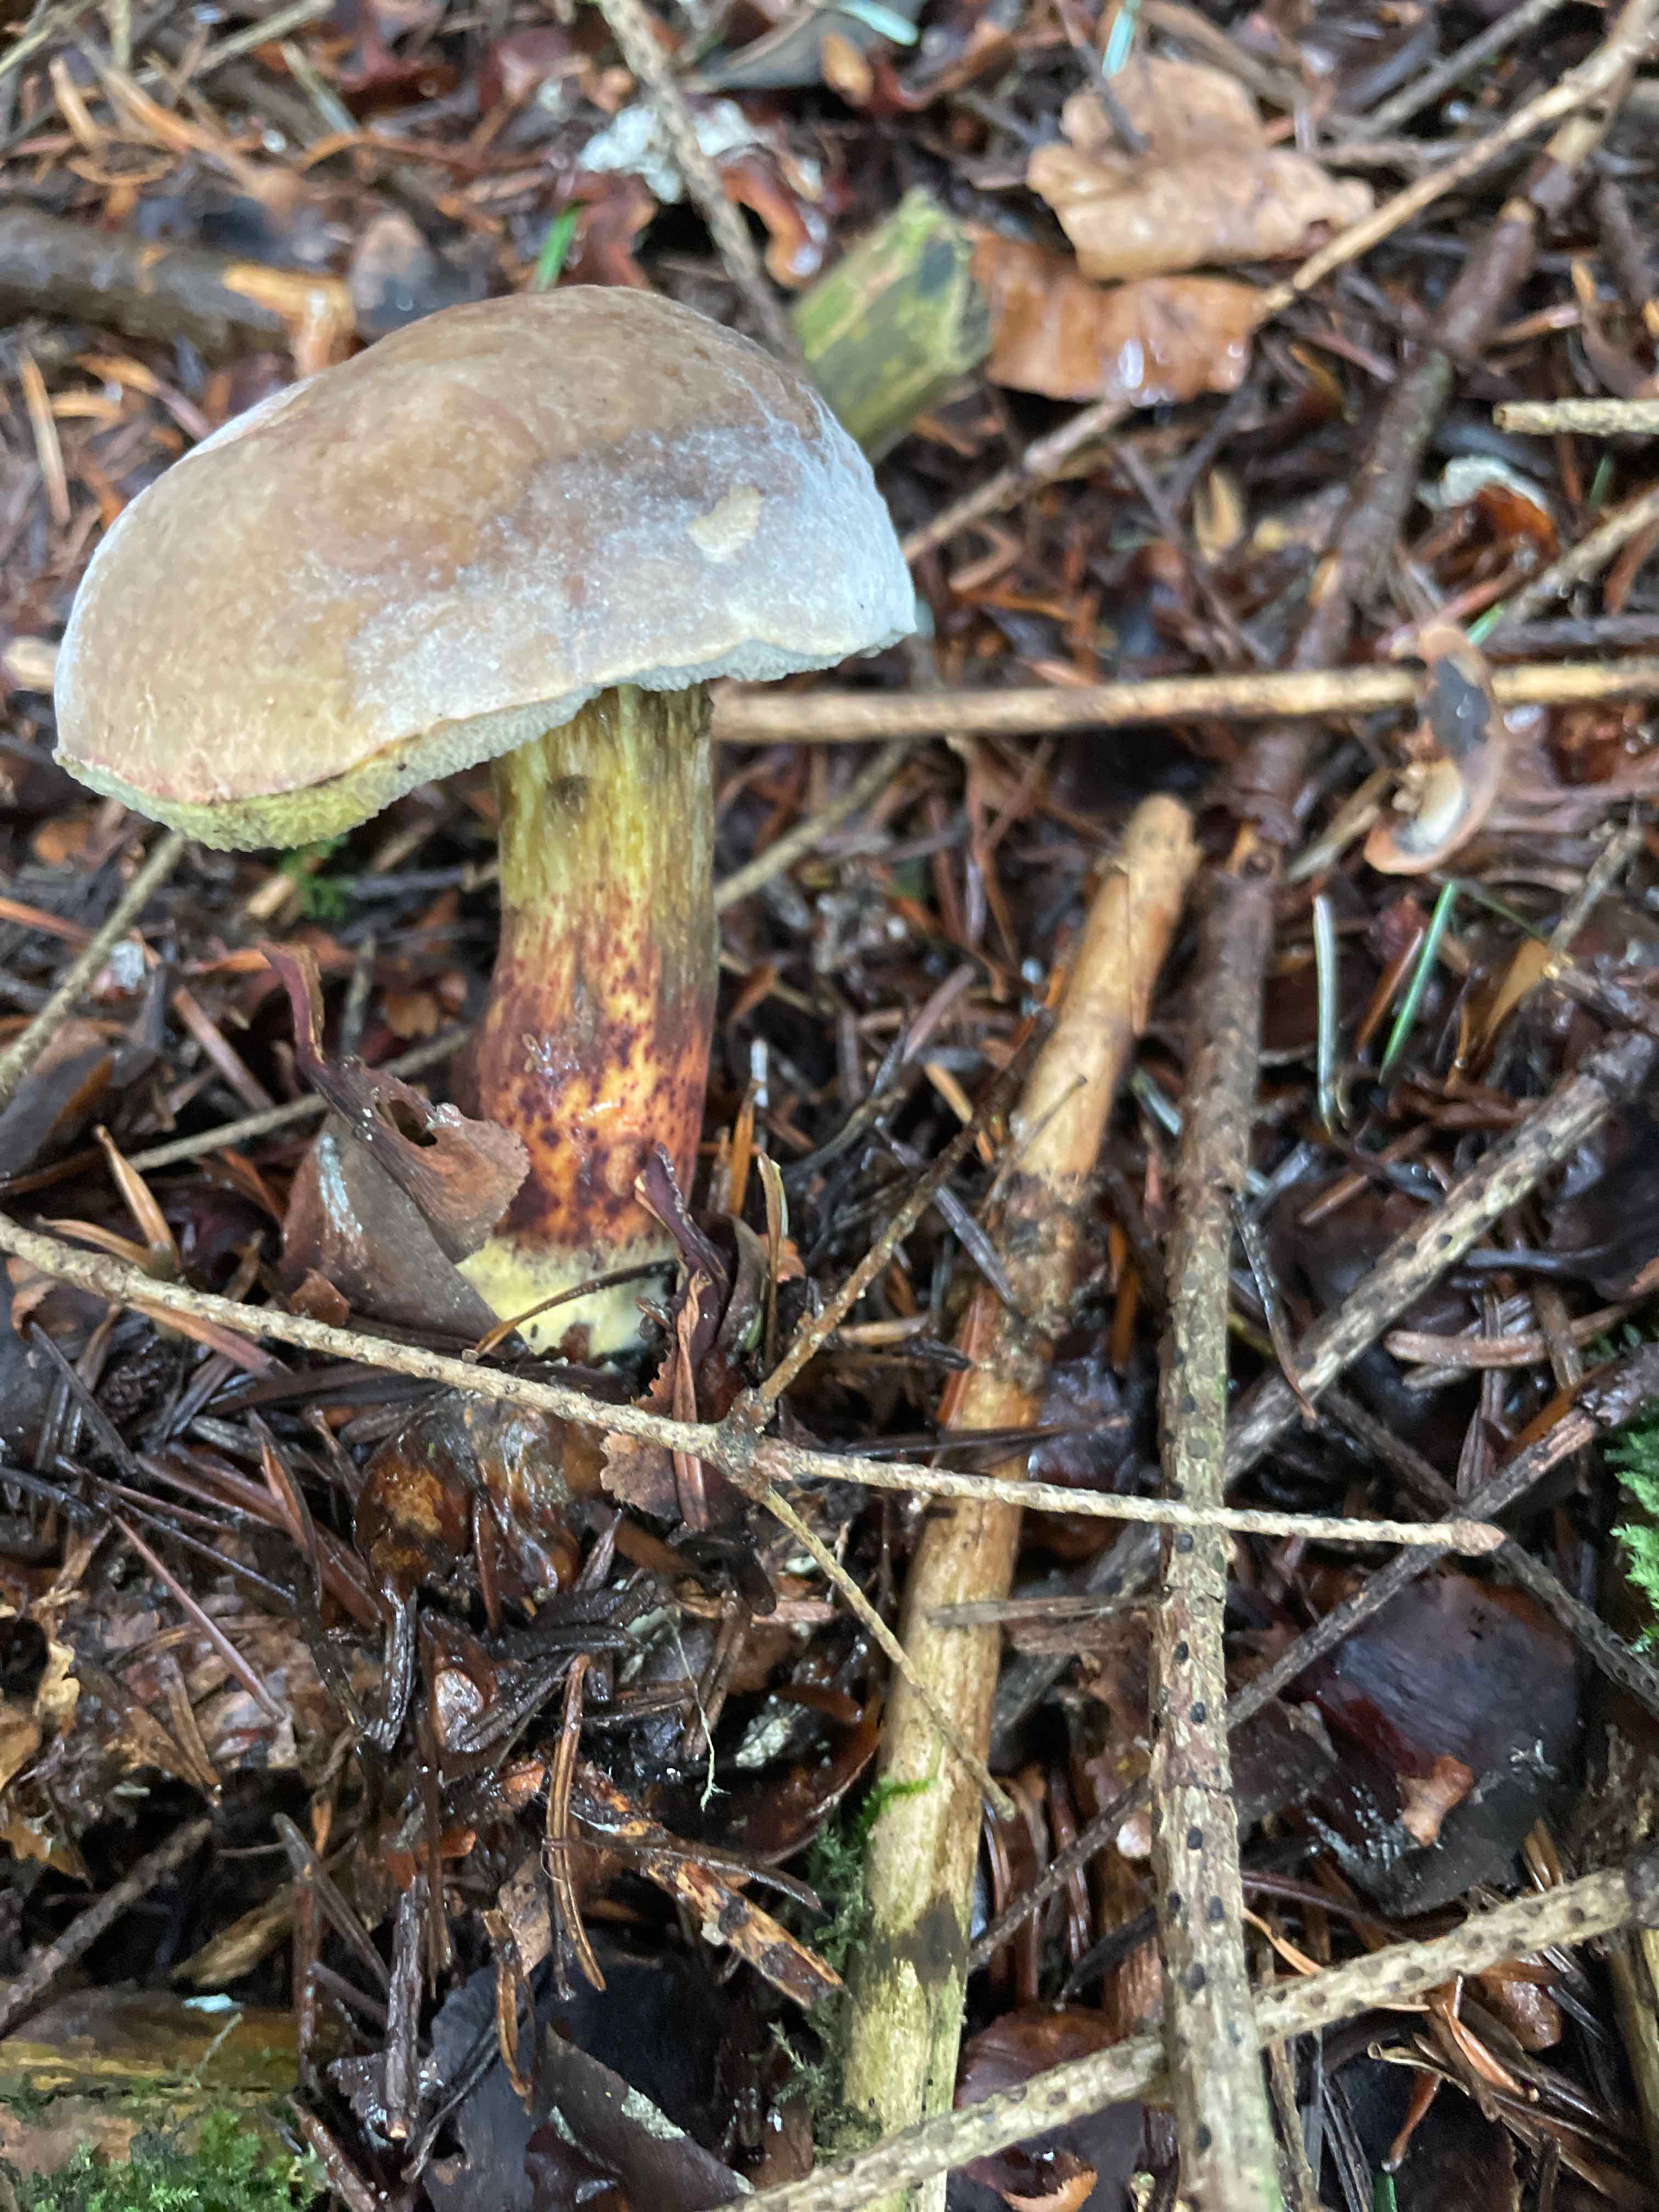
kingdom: Fungi
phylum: Basidiomycota
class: Agaricomycetes
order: Boletales
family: Boletaceae
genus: Xerocomellus
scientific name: Xerocomellus
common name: dværgrørhat
